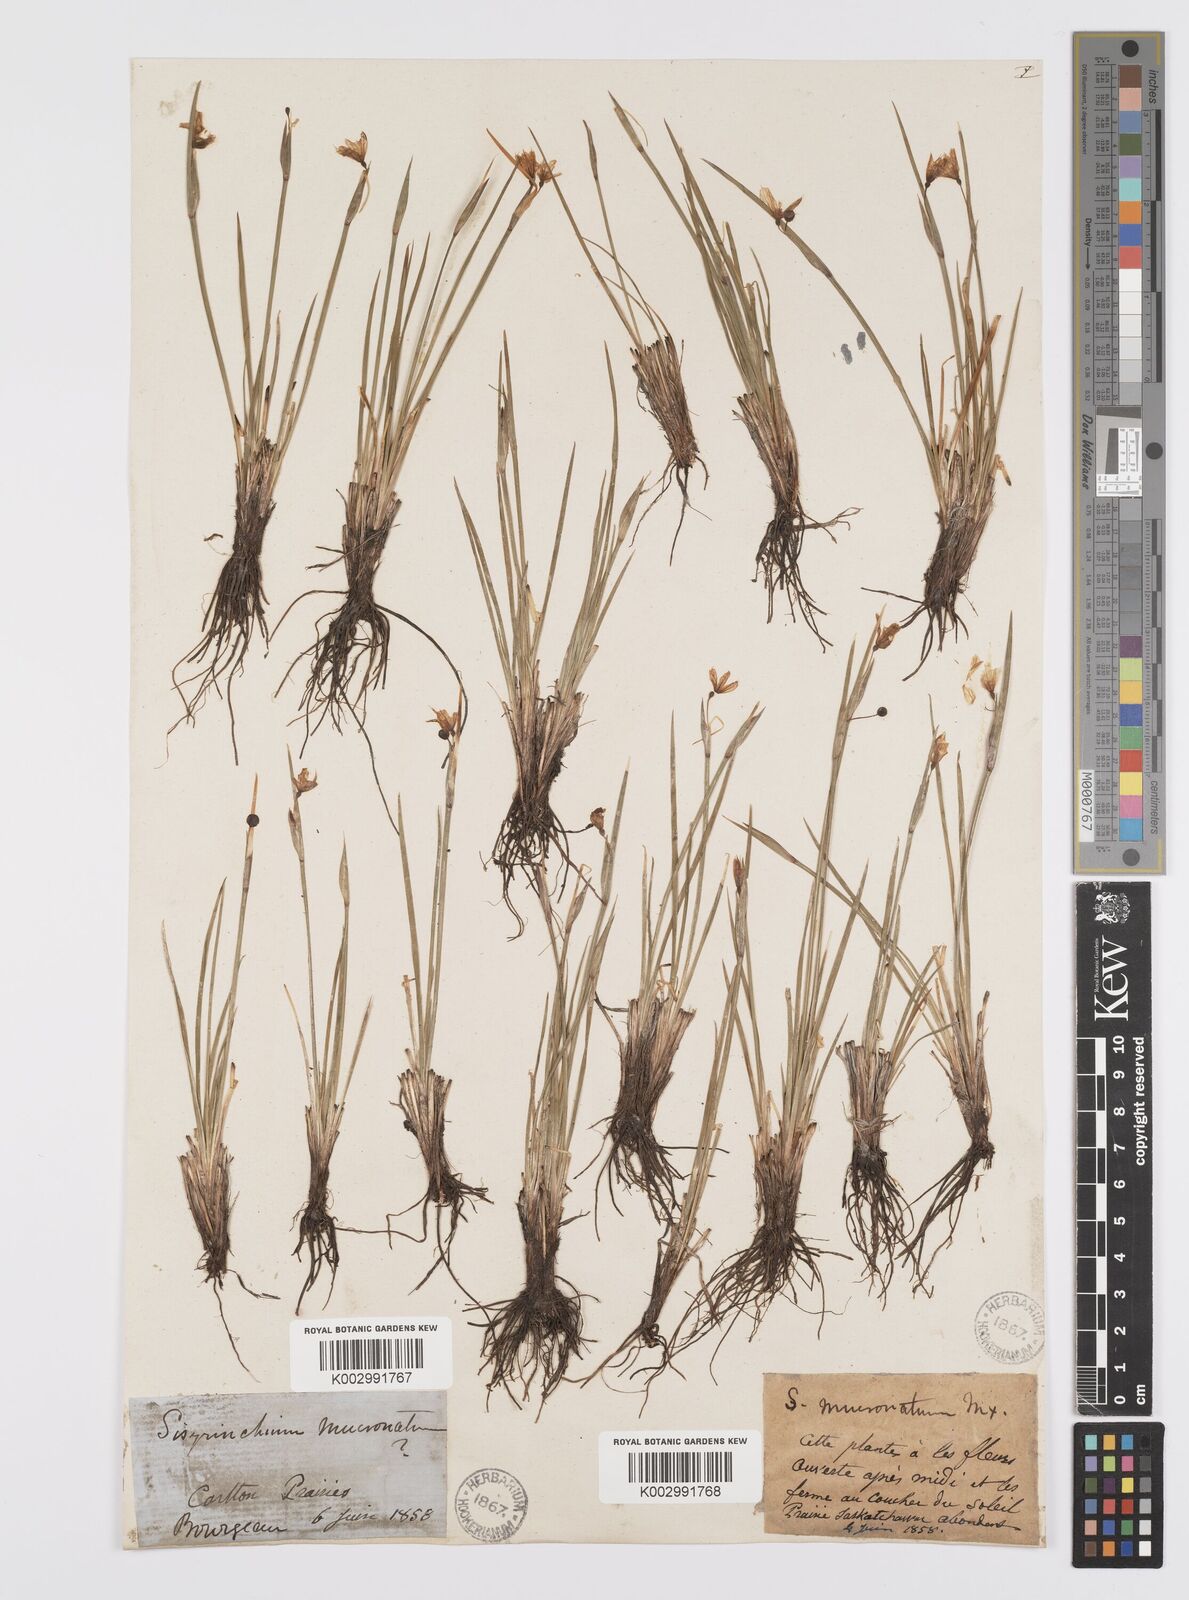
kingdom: Plantae
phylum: Tracheophyta
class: Liliopsida
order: Asparagales
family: Iridaceae
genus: Sisyrinchium
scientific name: Sisyrinchium bermudiana
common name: Blue-eyed-grass
